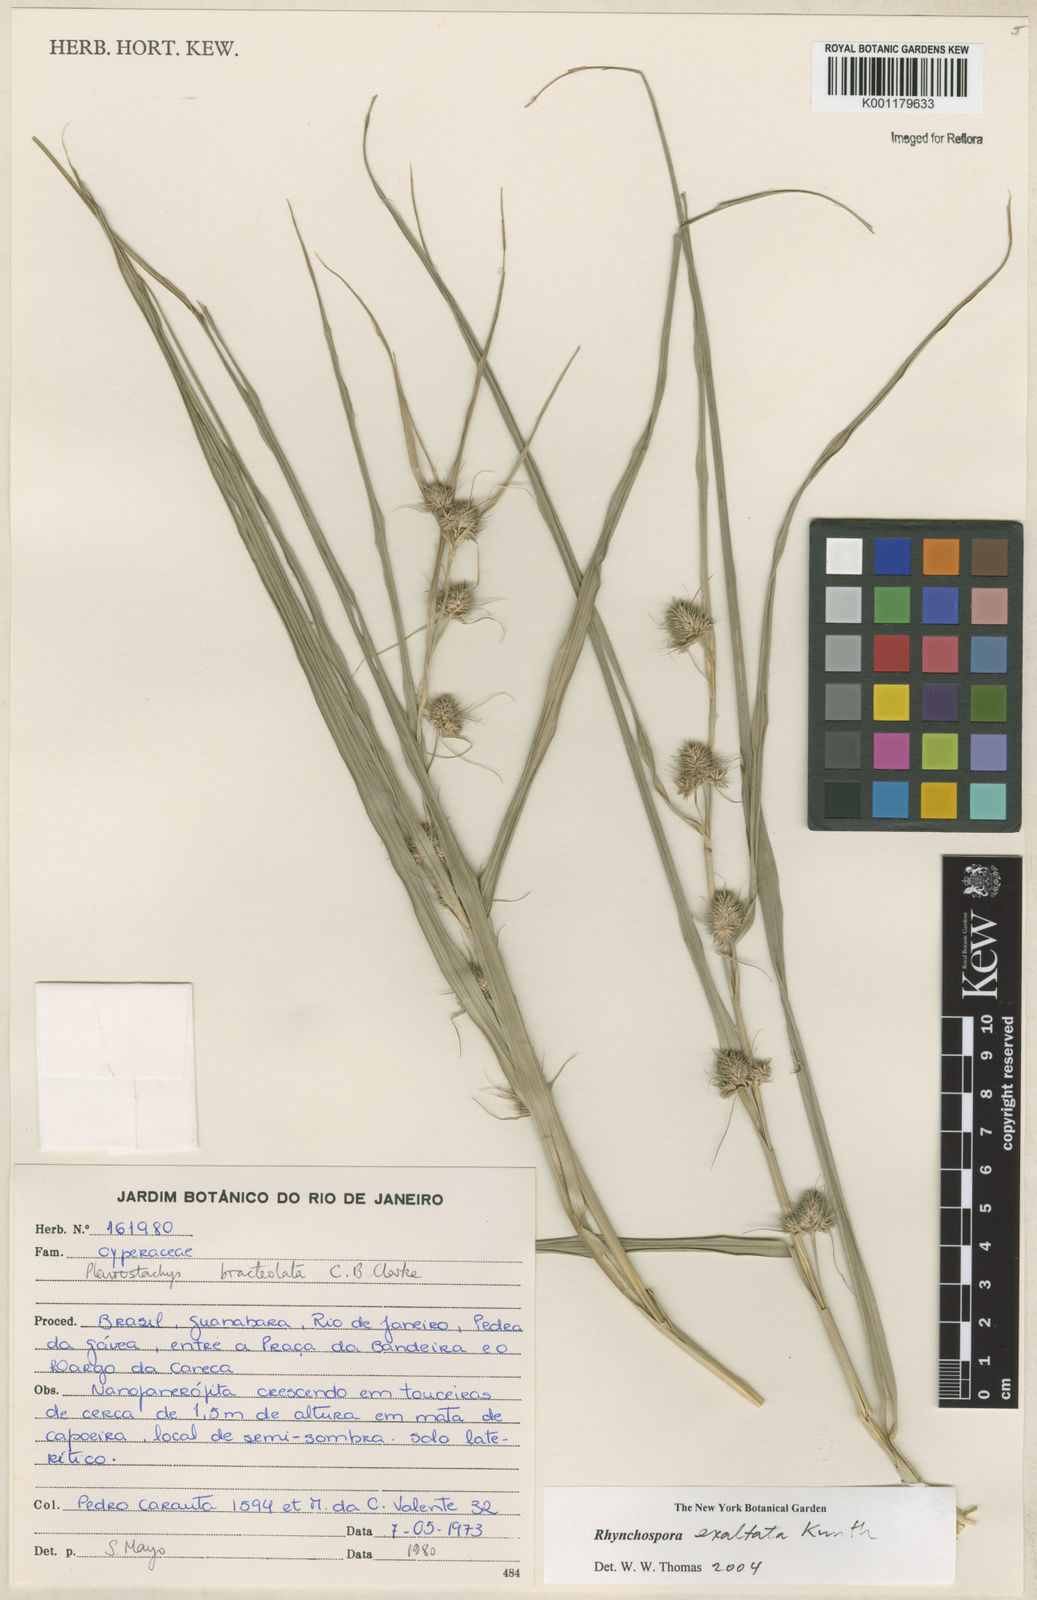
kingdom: Plantae
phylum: Tracheophyta
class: Liliopsida
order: Poales
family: Cyperaceae
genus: Rhynchospora
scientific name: Rhynchospora exaltata
